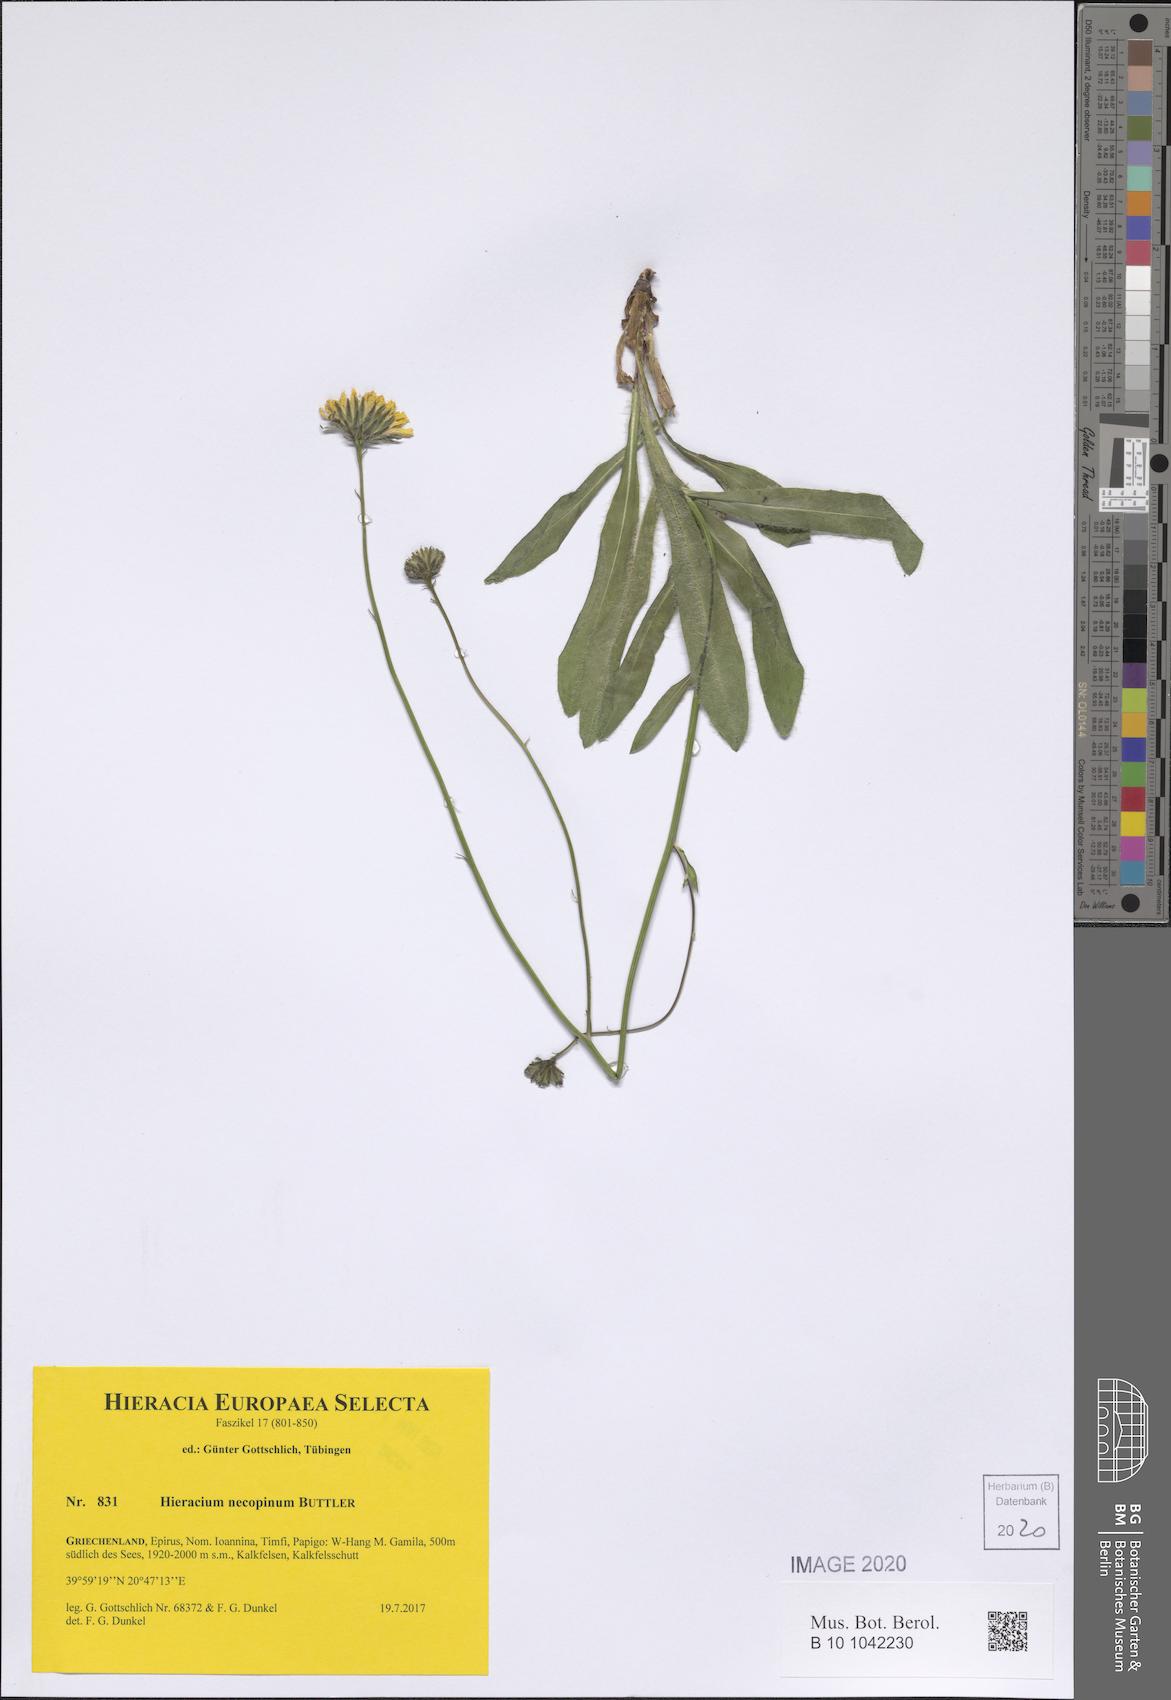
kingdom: Plantae
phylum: Tracheophyta
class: Magnoliopsida
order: Asterales
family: Asteraceae
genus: Hieracium
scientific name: Hieracium necopinum
